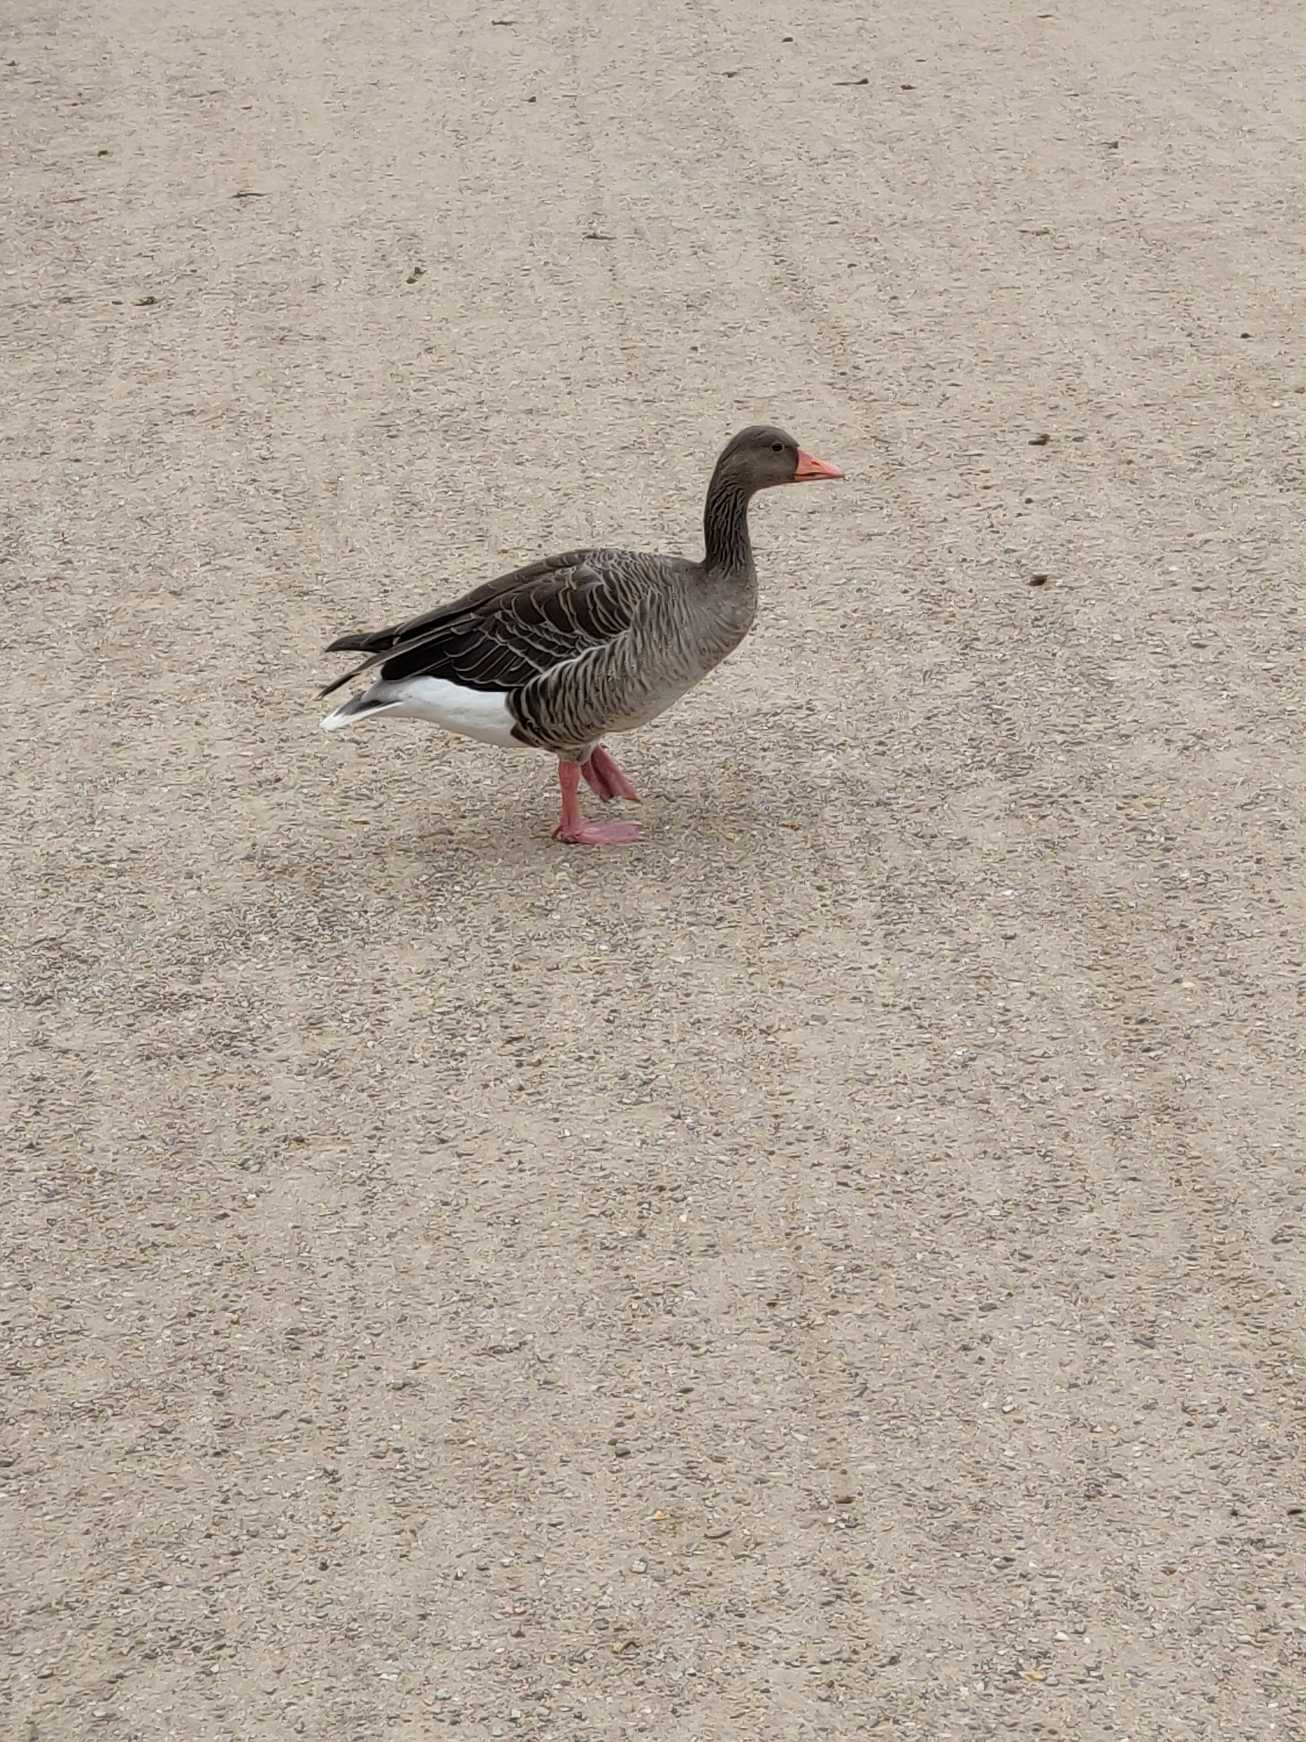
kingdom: Animalia
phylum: Chordata
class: Aves
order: Anseriformes
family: Anatidae
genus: Anser
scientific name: Anser anser
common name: Grågås
